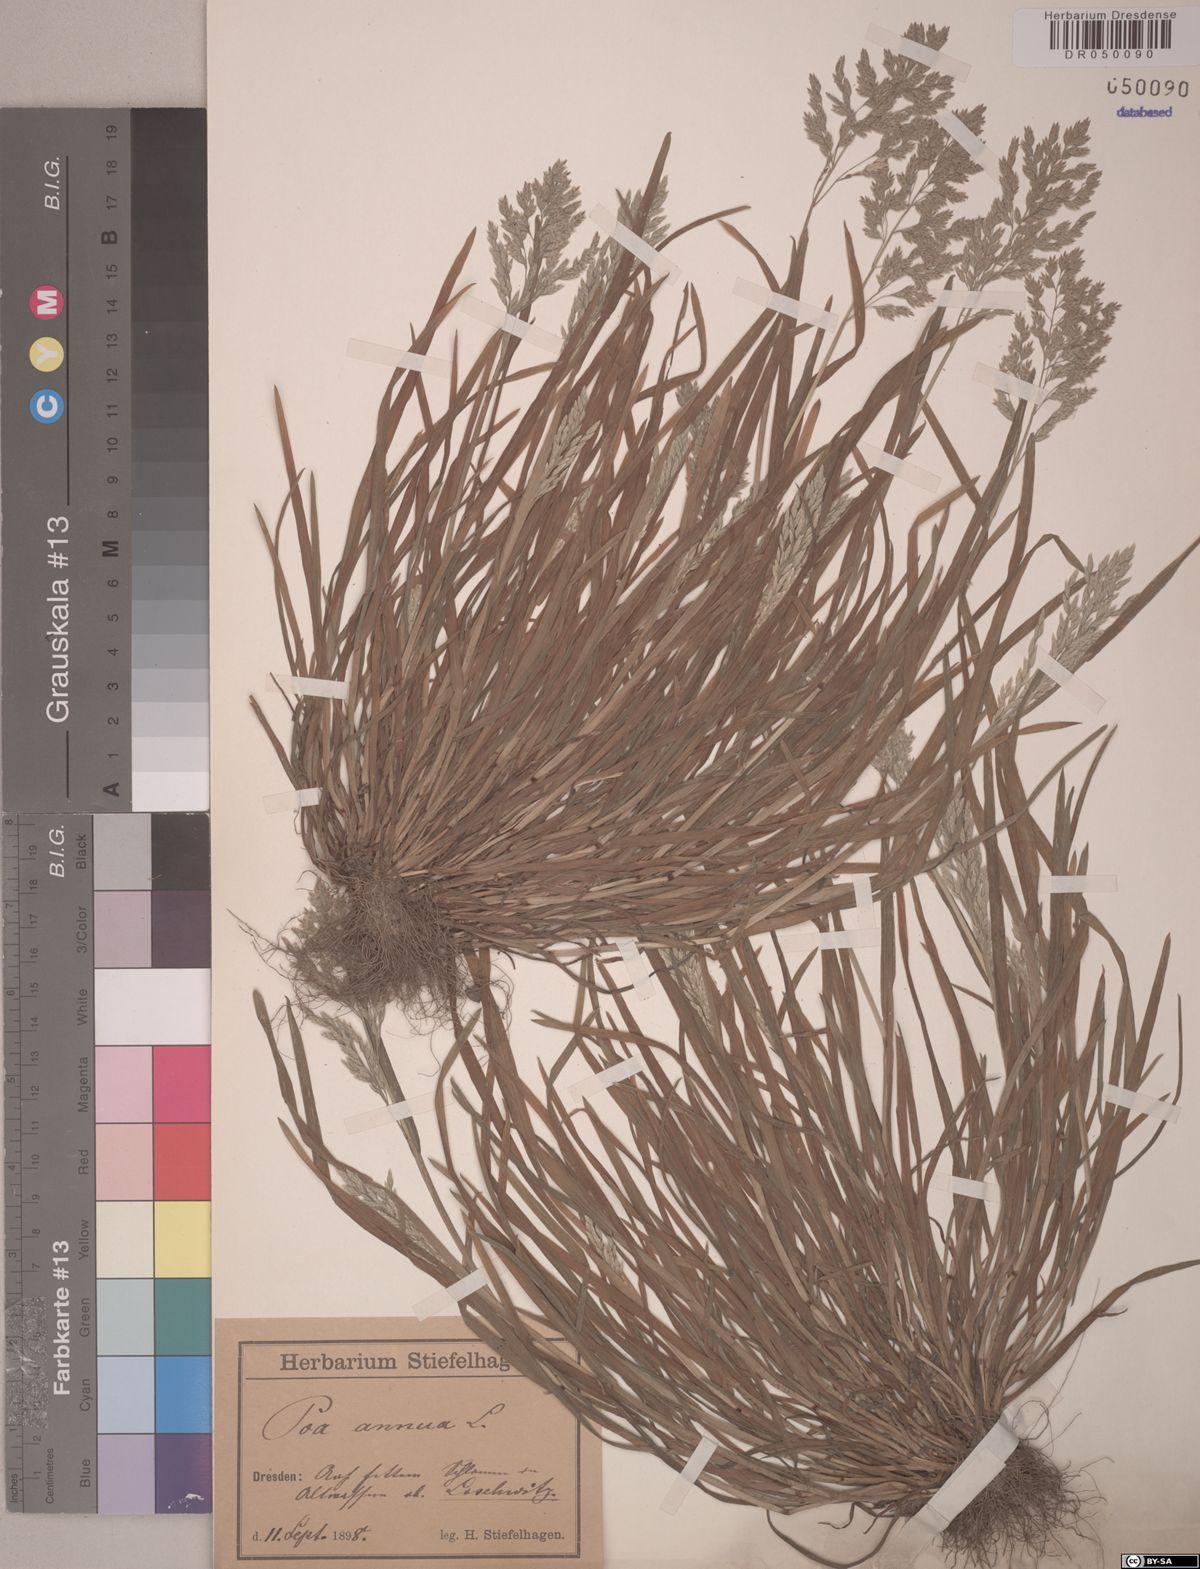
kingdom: Plantae
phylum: Tracheophyta
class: Liliopsida
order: Poales
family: Poaceae
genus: Poa
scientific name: Poa annua
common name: Annual bluegrass
